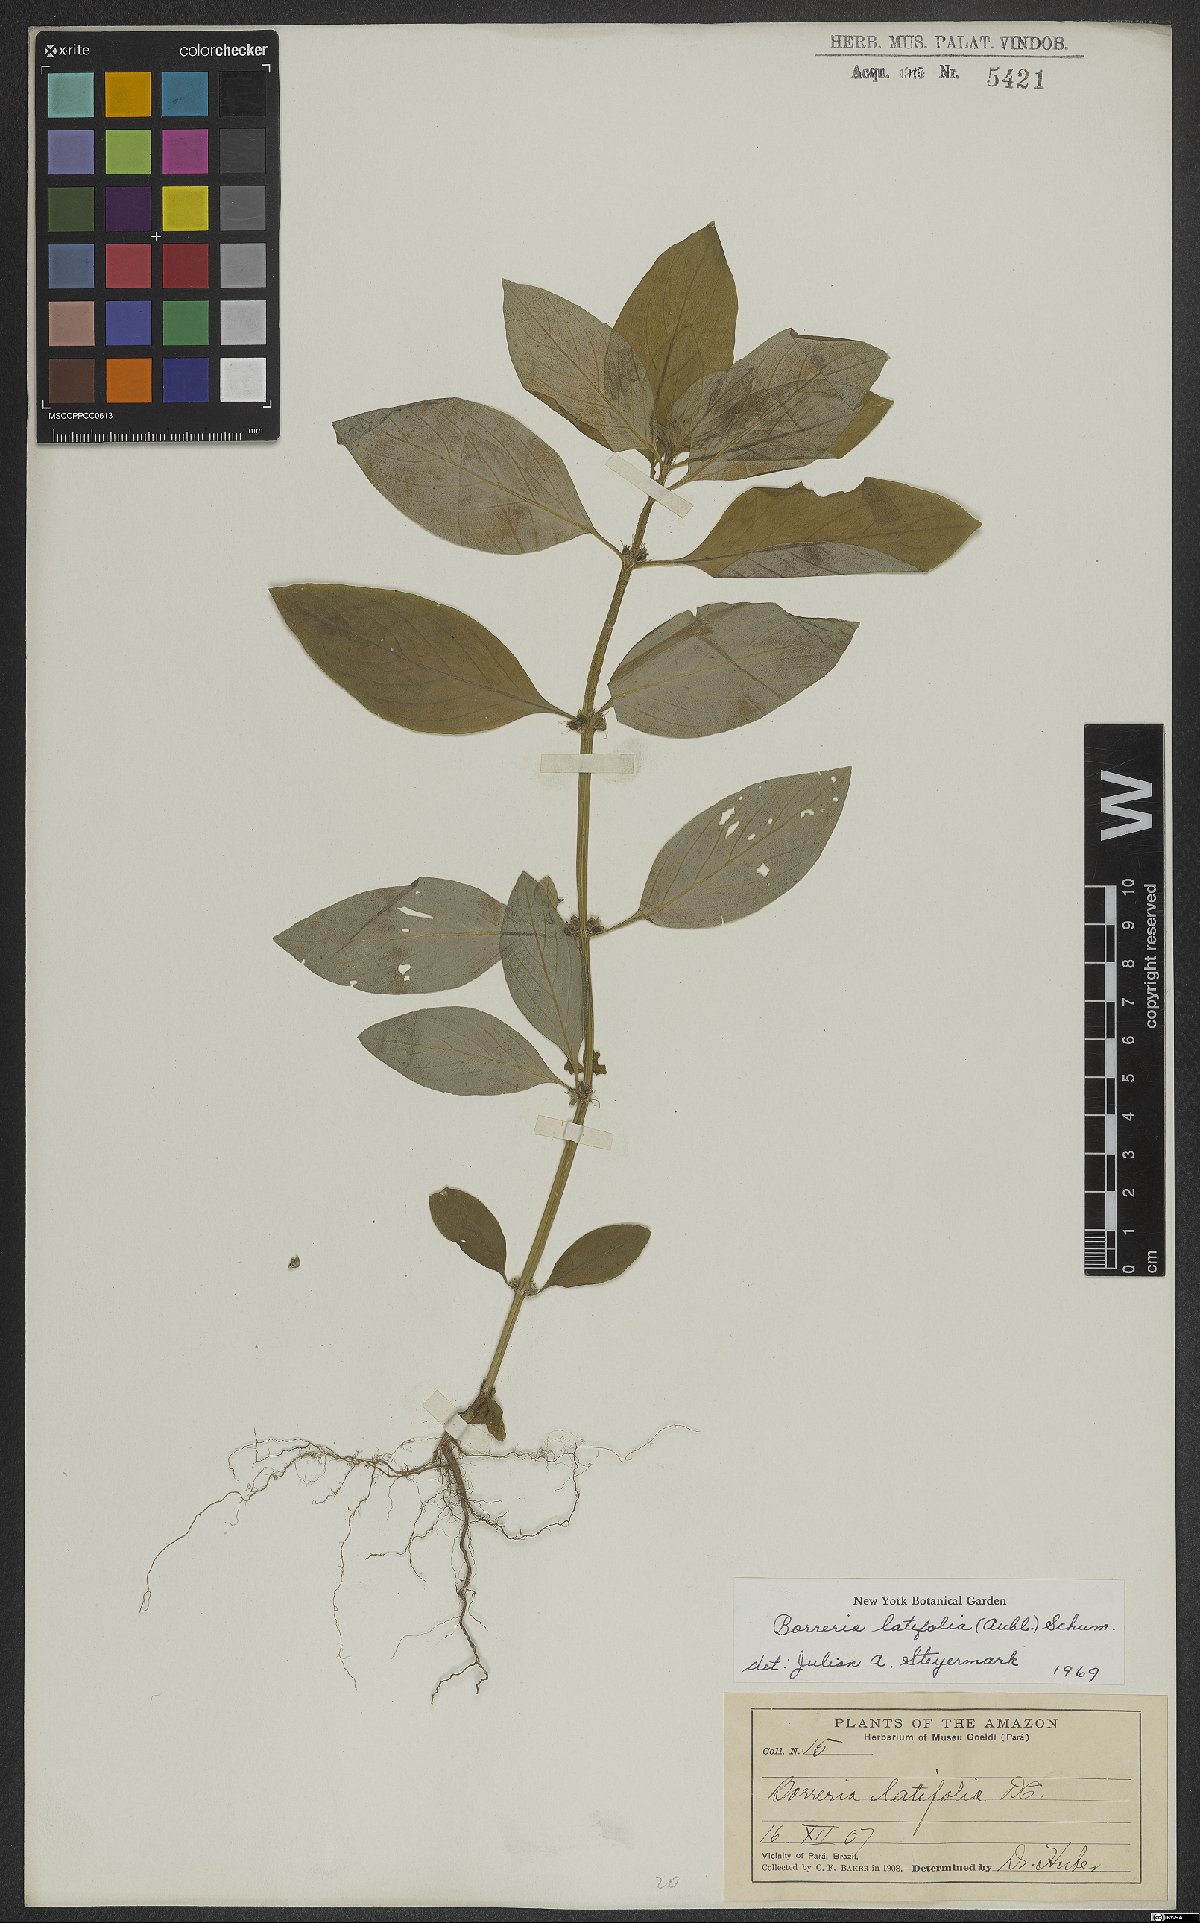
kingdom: Plantae
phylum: Tracheophyta
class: Magnoliopsida
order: Gentianales
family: Rubiaceae
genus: Spermacoce
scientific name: Spermacoce latifolia
